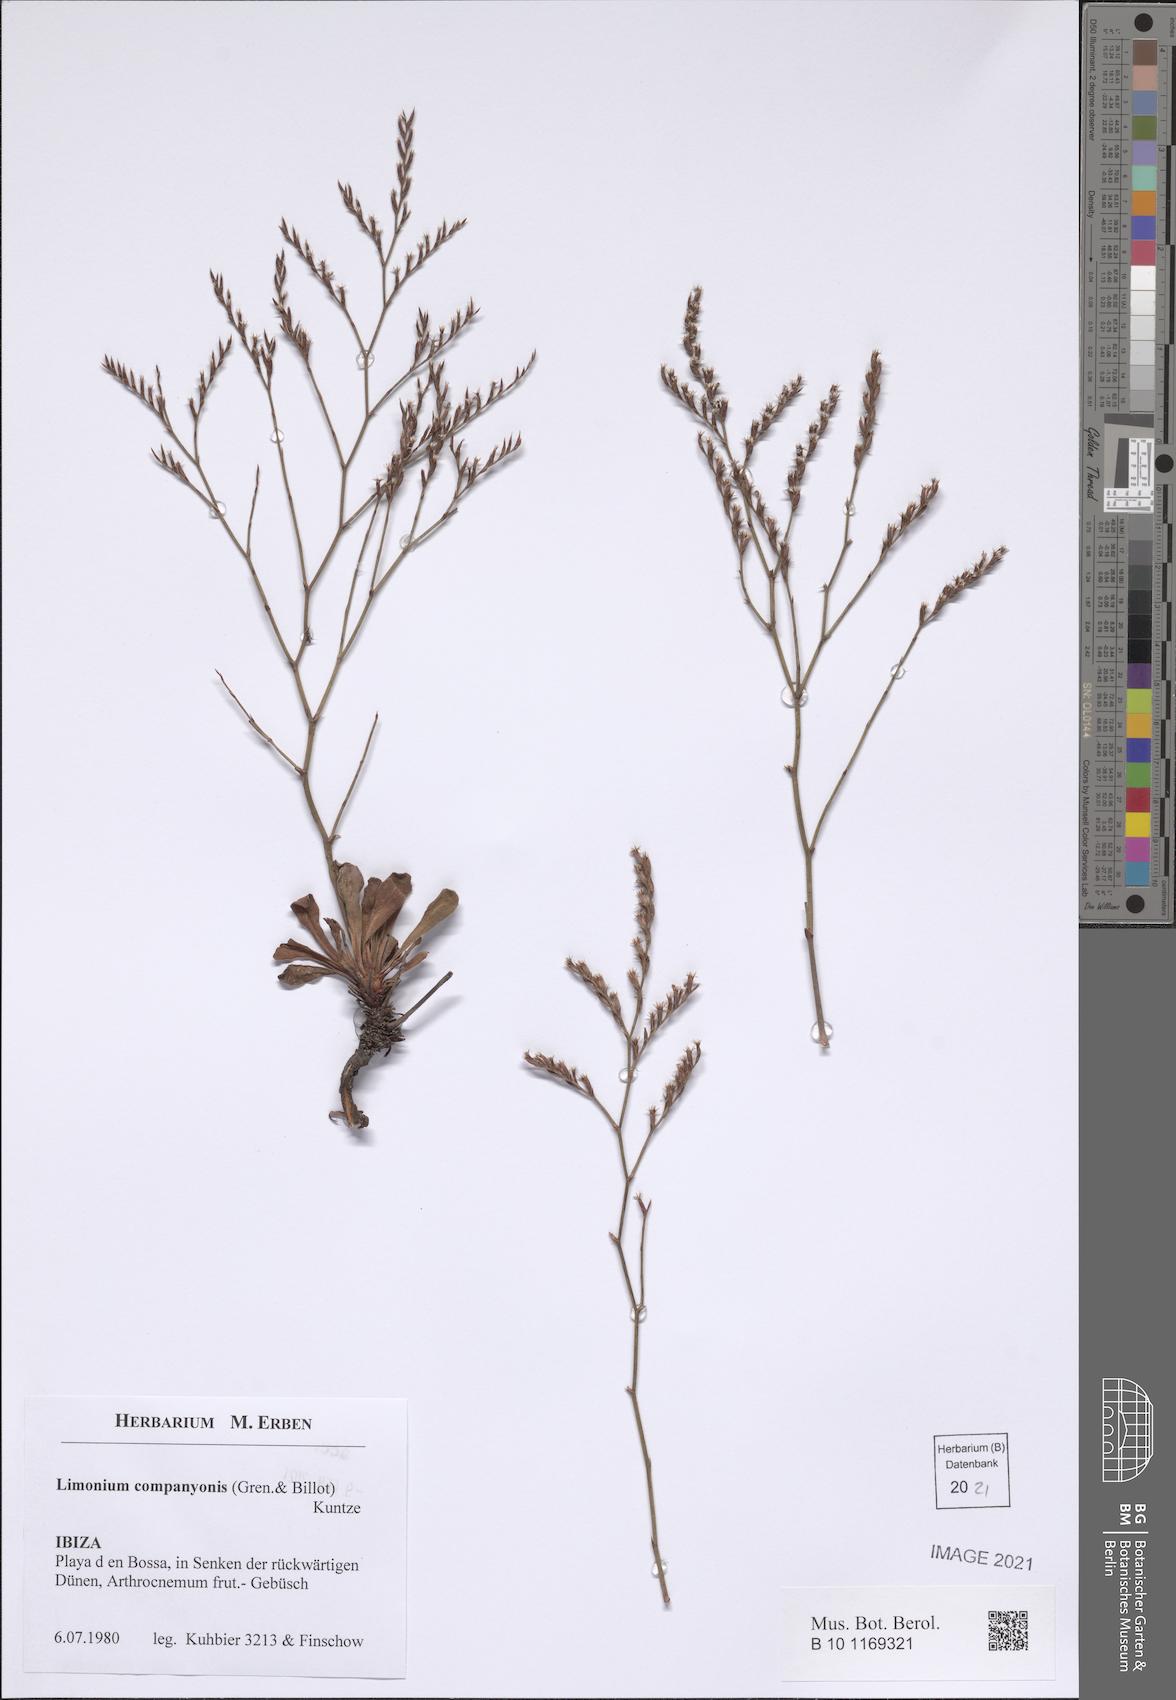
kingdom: Plantae
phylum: Tracheophyta
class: Magnoliopsida
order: Caryophyllales
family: Plumbaginaceae
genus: Limonium
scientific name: Limonium companyonis
